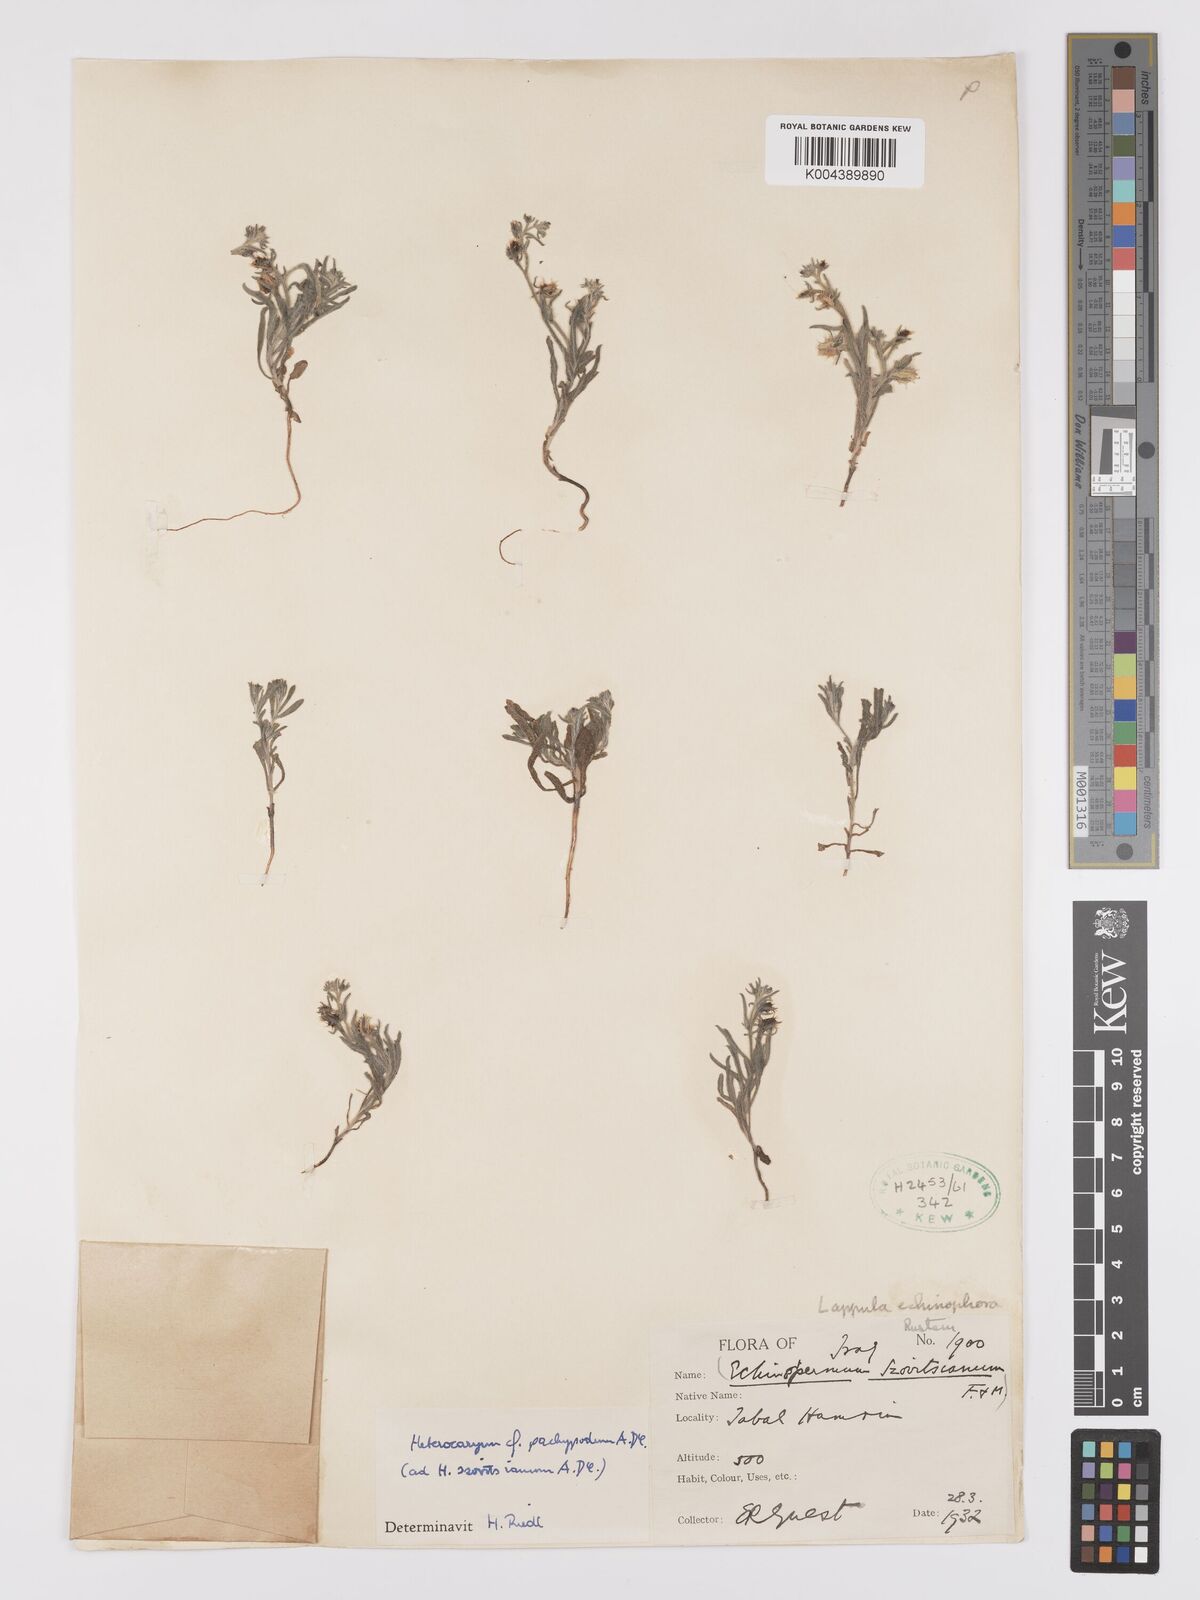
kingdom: Plantae
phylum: Tracheophyta
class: Magnoliopsida
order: Boraginales
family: Boraginaceae
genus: Lappula
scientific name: Lappula
